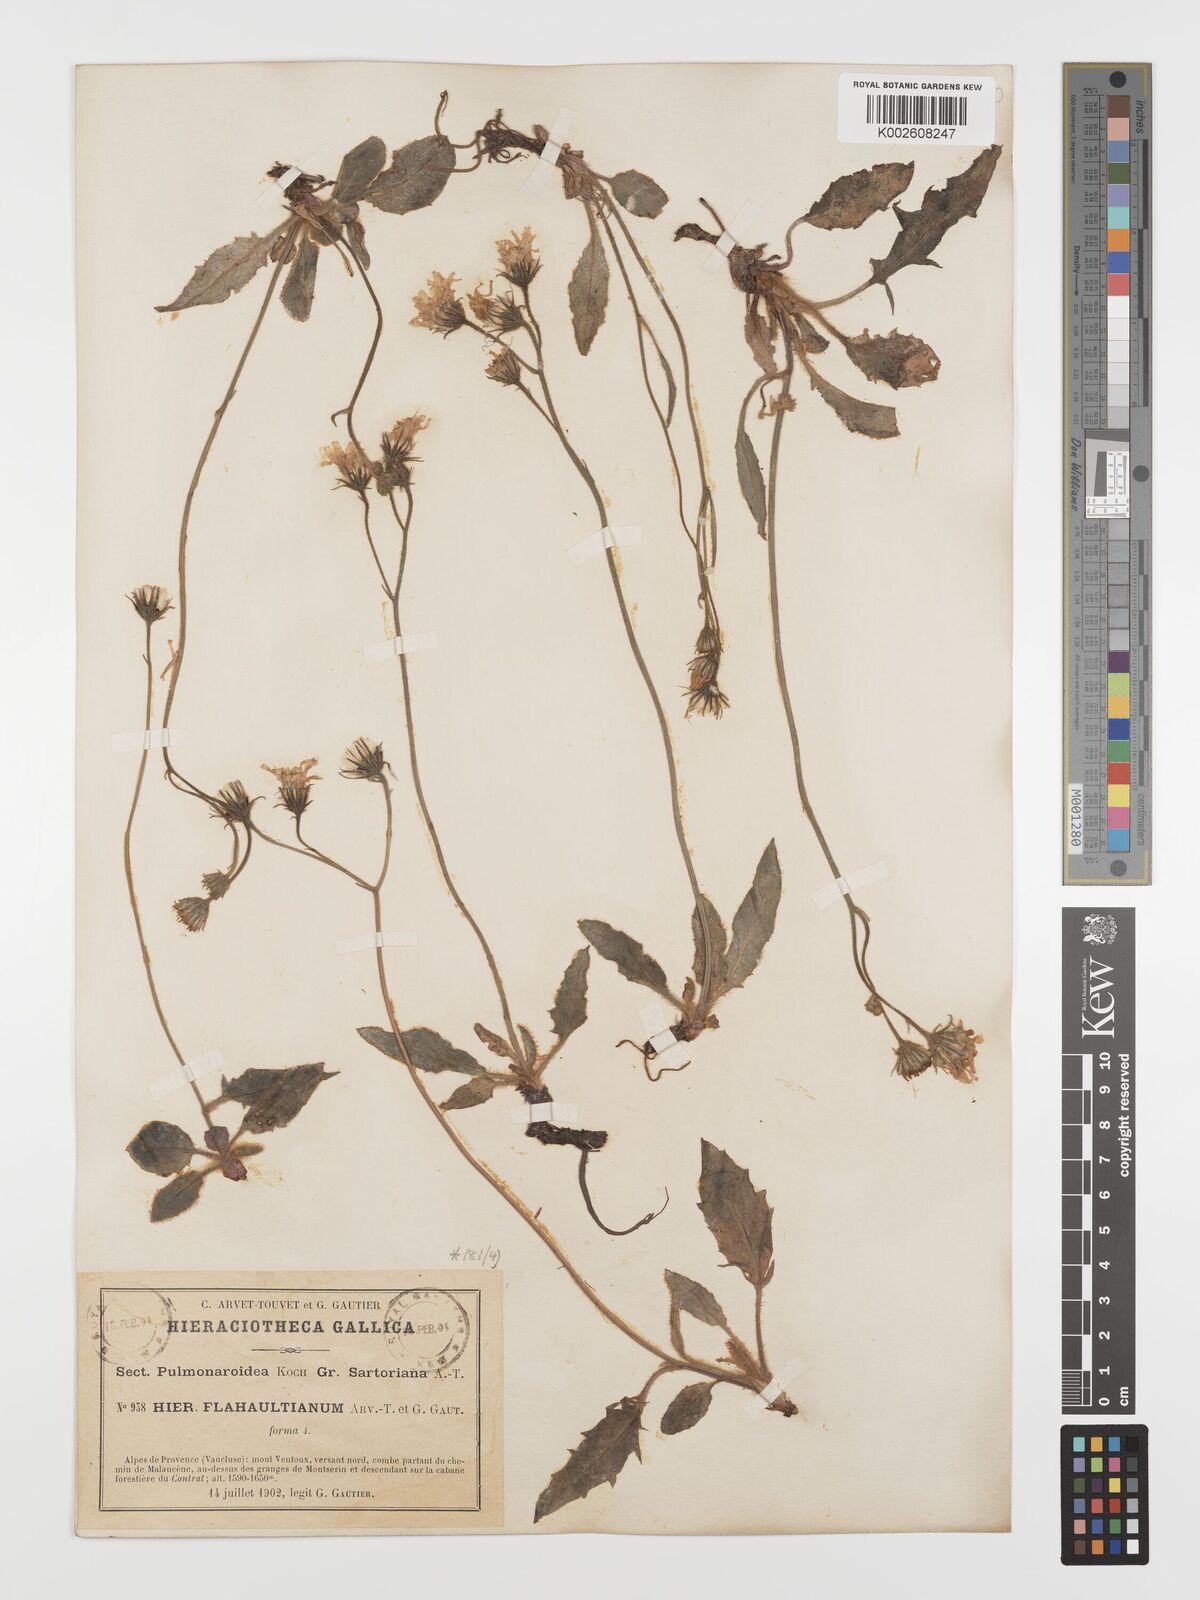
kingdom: Plantae
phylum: Tracheophyta
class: Magnoliopsida
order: Asterales
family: Asteraceae
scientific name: Asteraceae
